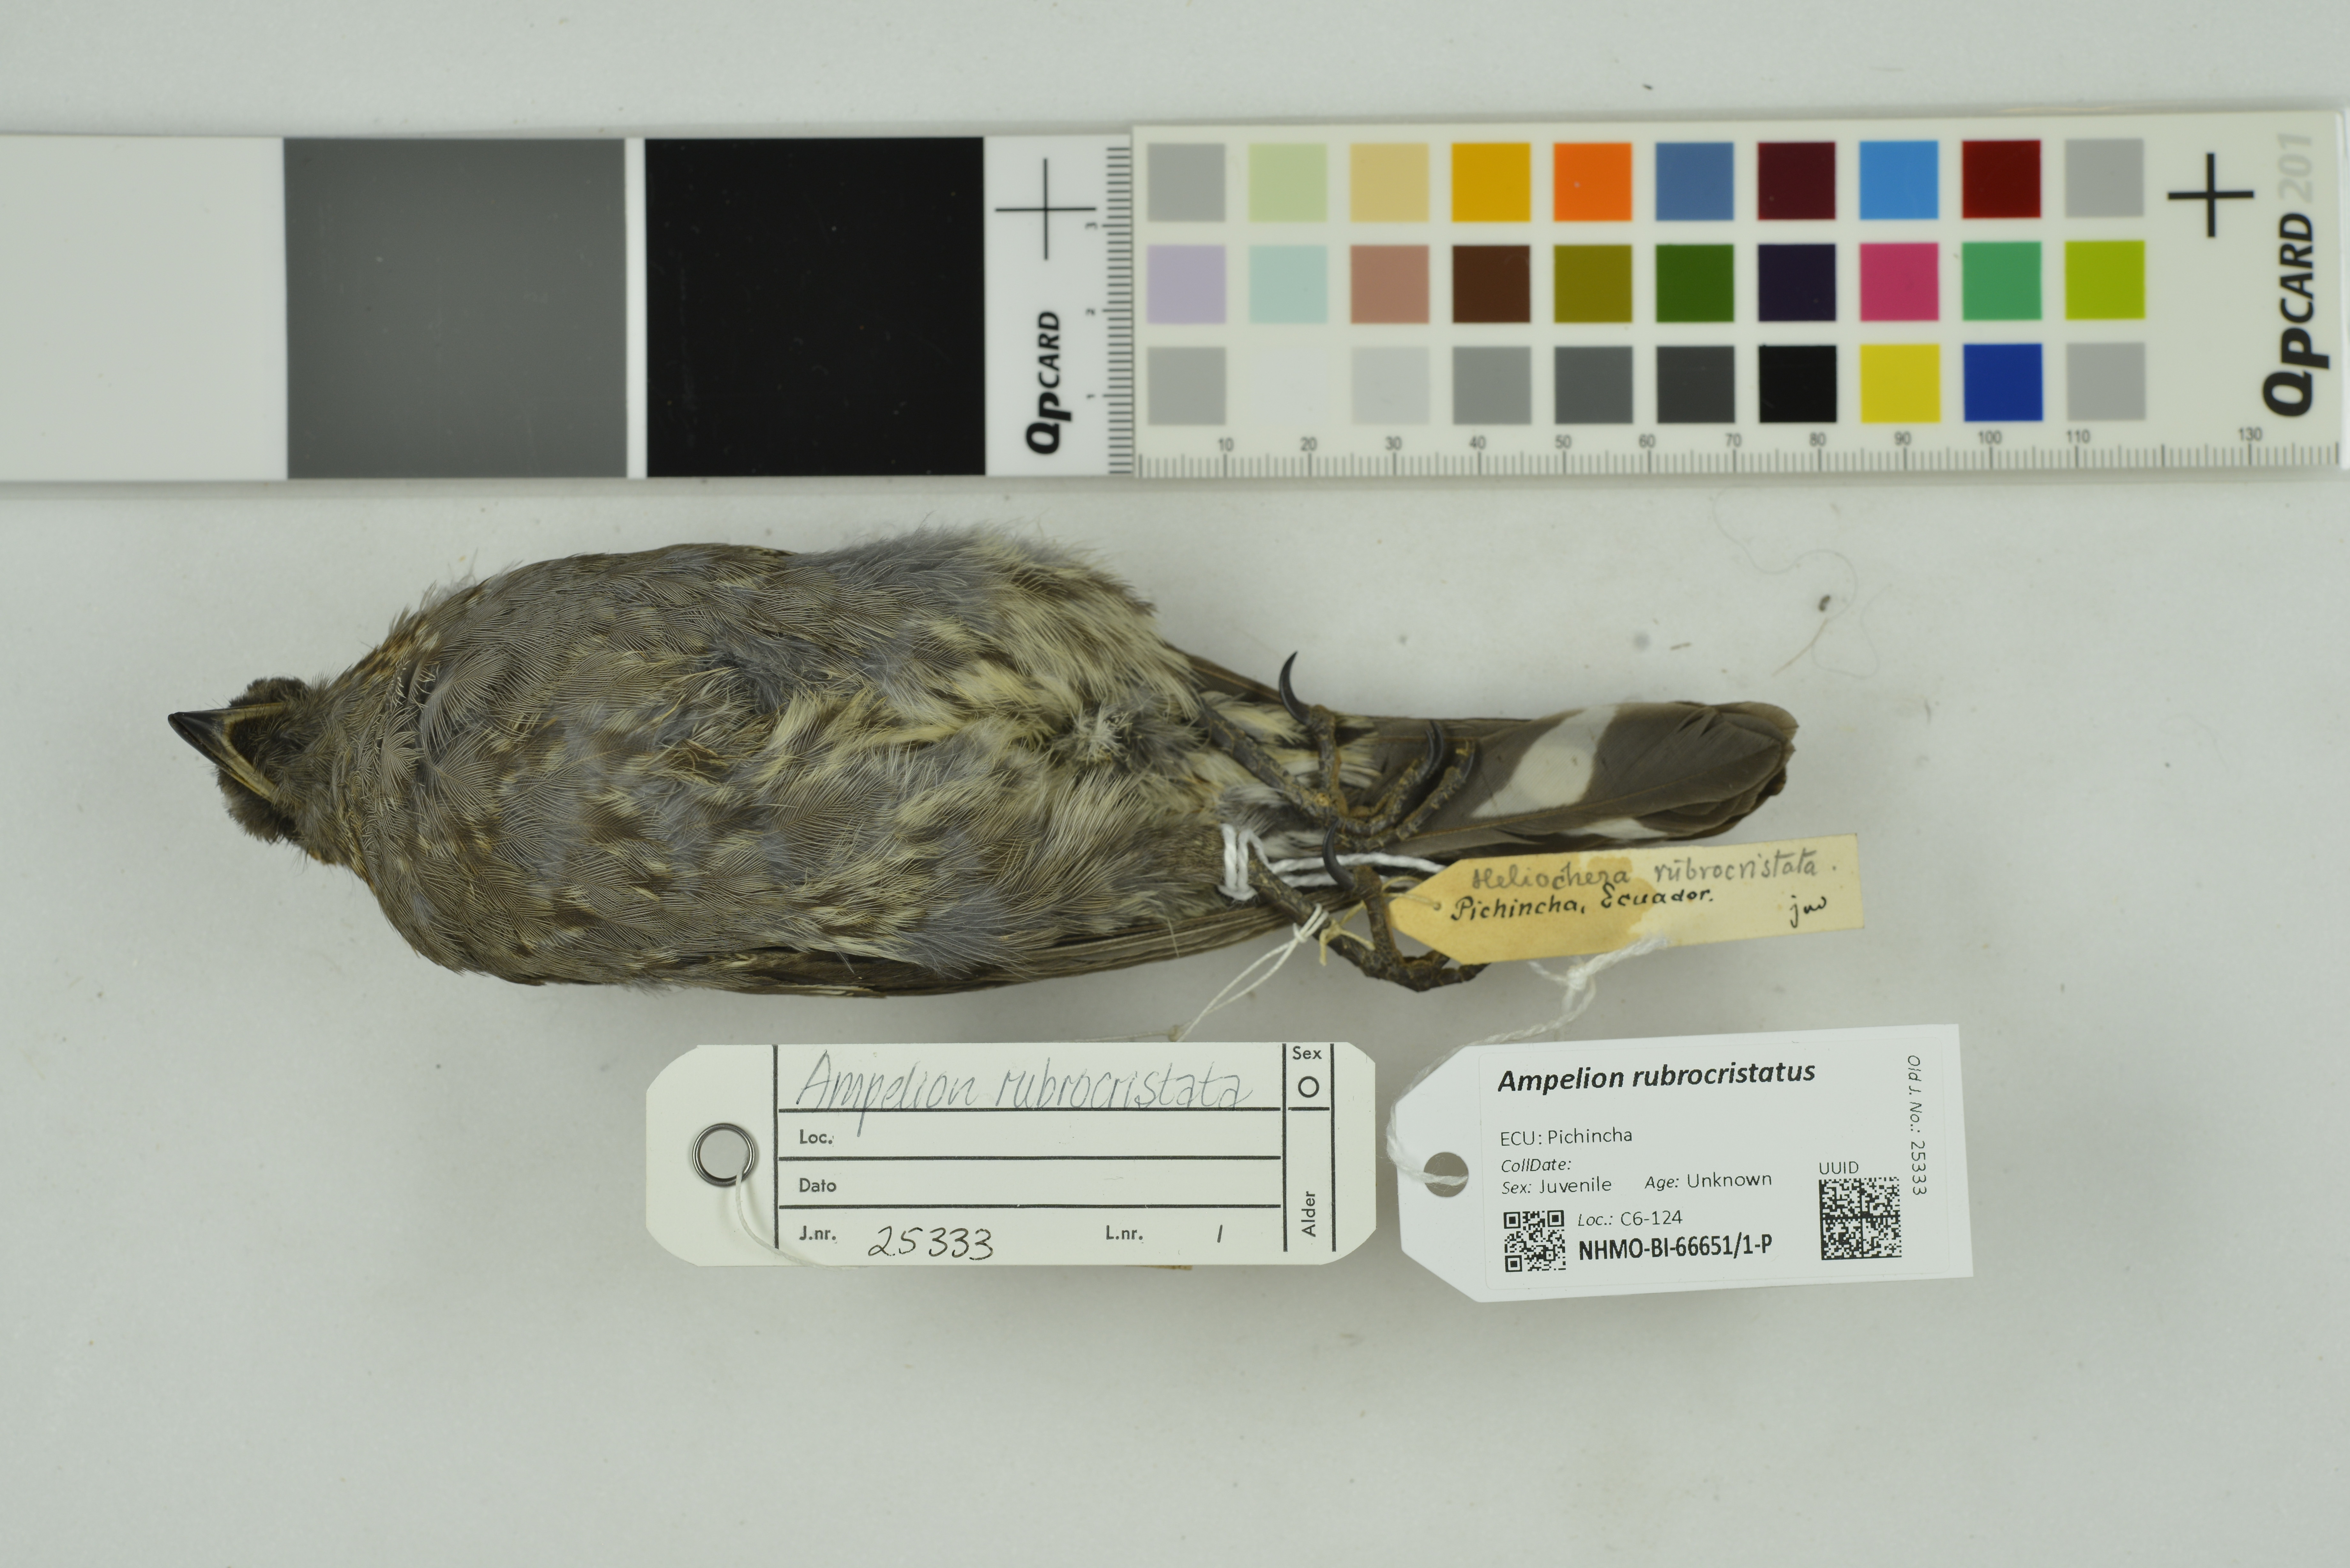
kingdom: Animalia
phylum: Chordata
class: Aves
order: Passeriformes
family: Cotingidae
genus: Ampelion
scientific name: Ampelion rubrocristatus
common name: Red-crested cotinga
